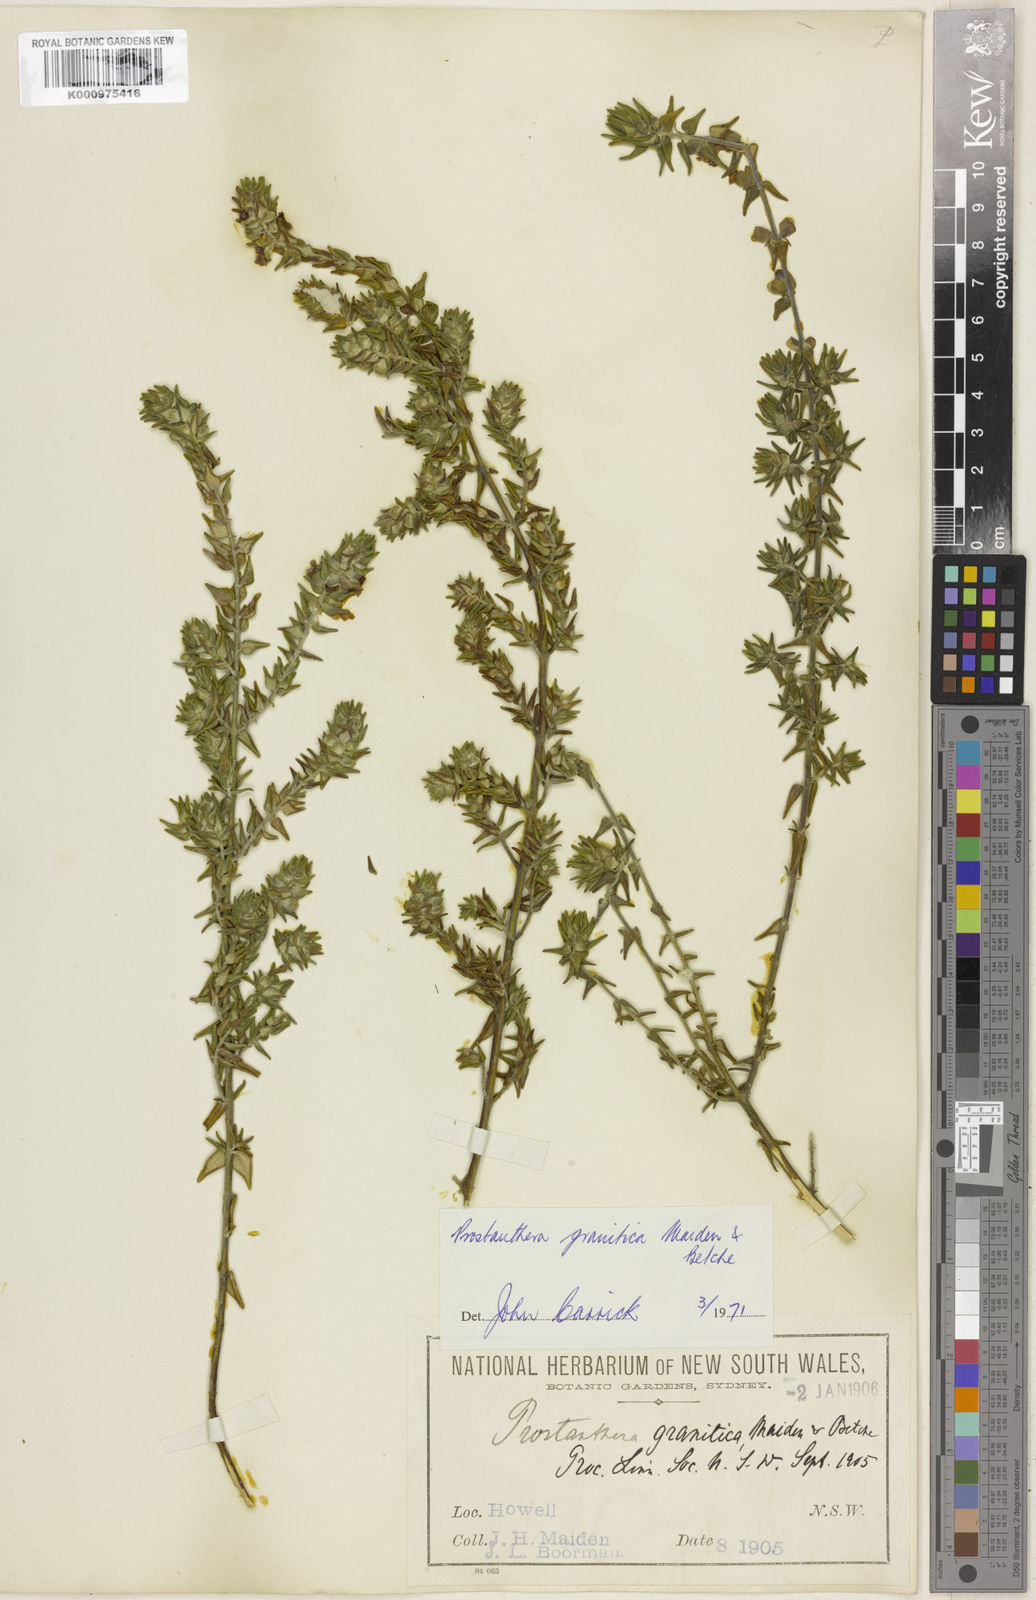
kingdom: Plantae
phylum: Tracheophyta
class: Magnoliopsida
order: Lamiales
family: Lamiaceae
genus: Prostanthera
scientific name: Prostanthera granitica
